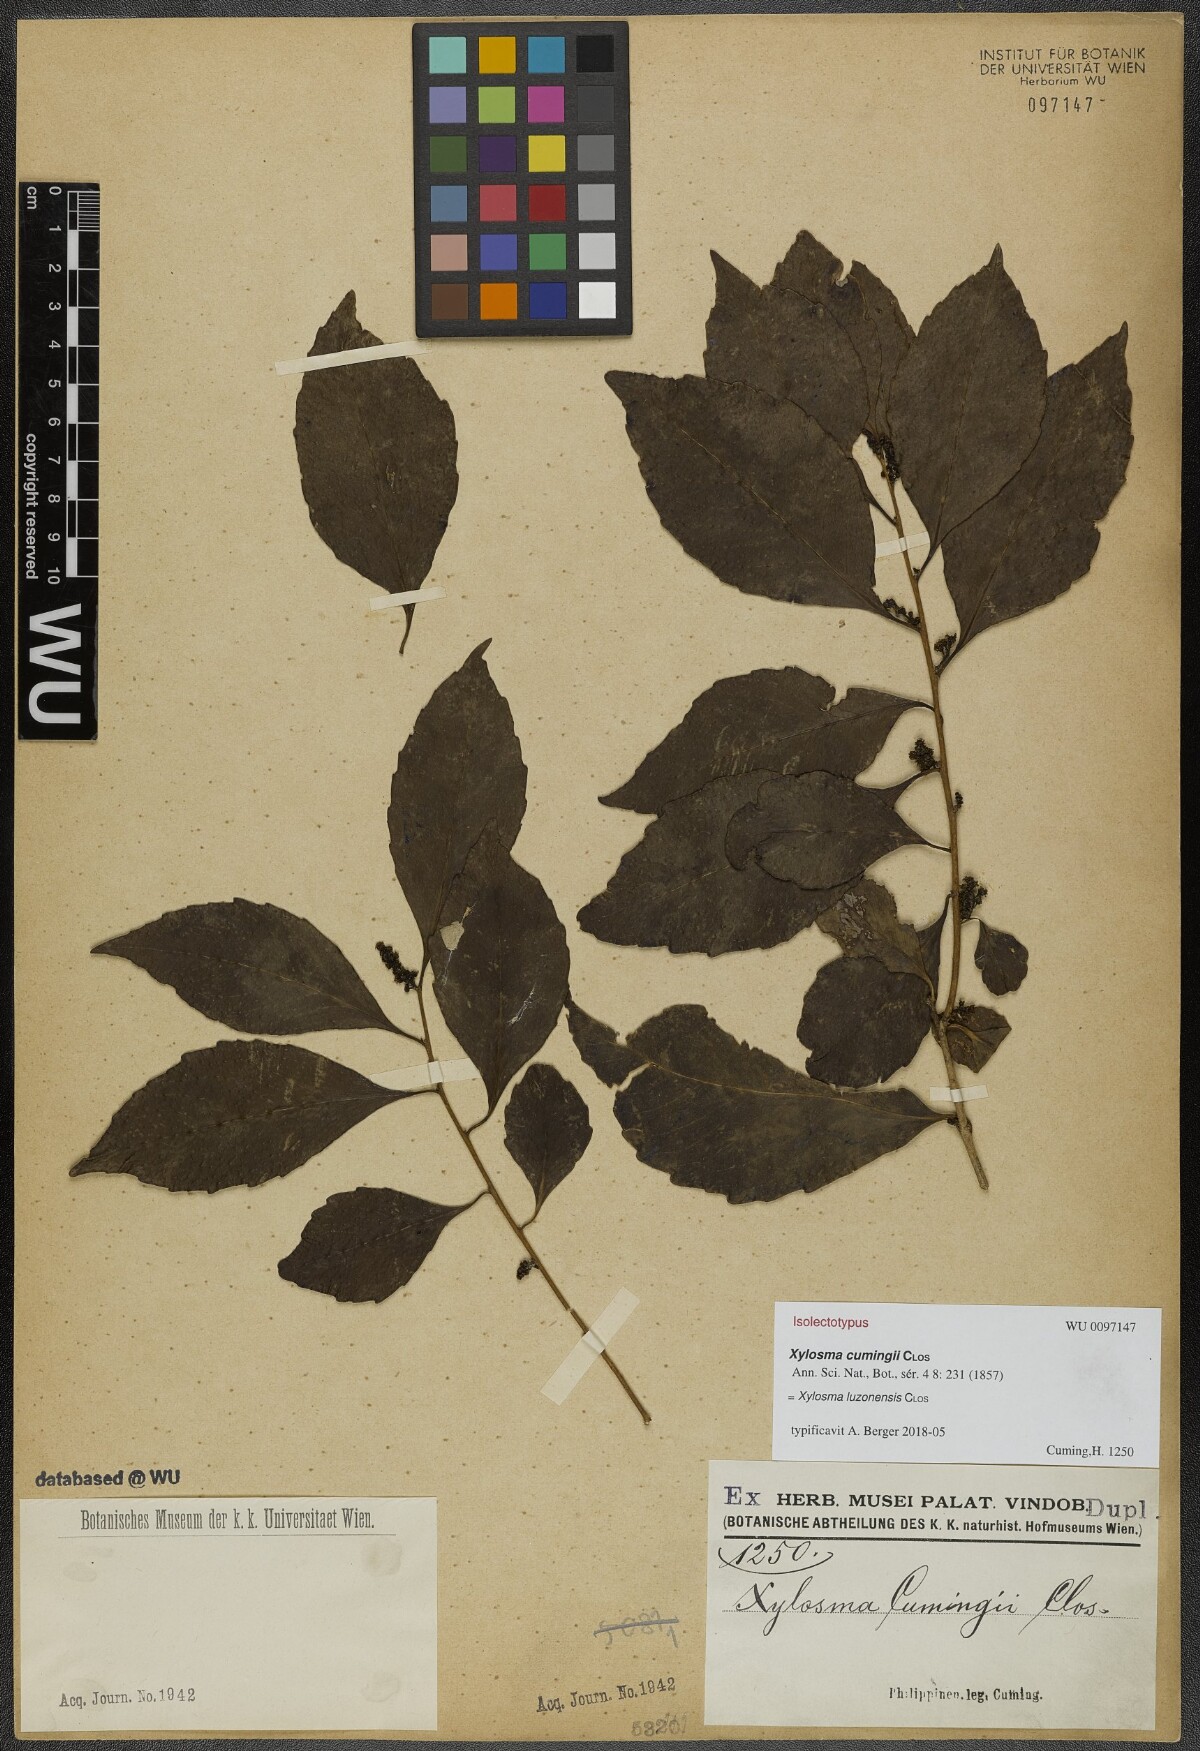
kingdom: Plantae
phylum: Tracheophyta
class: Magnoliopsida
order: Malpighiales
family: Salicaceae
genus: Xylosma
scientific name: Xylosma luzonensis
